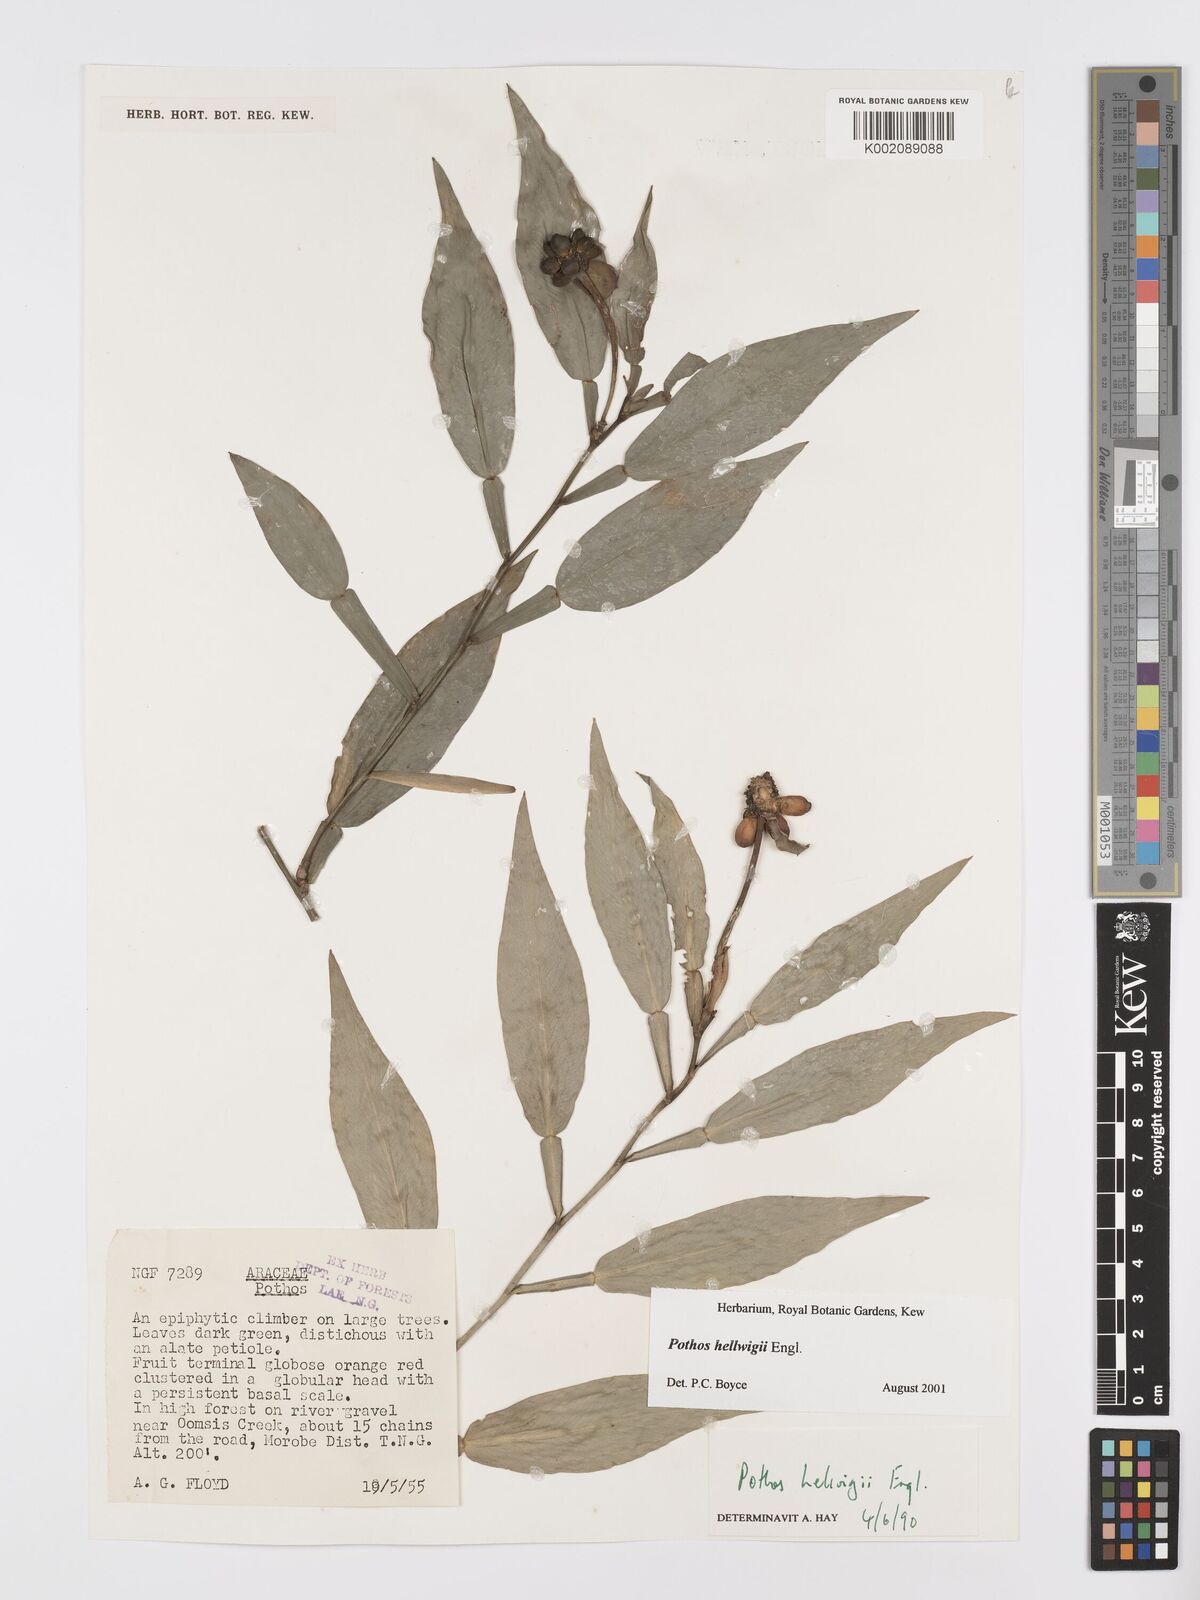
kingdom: Plantae
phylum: Tracheophyta
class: Liliopsida
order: Alismatales
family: Araceae
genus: Pothos
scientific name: Pothos hellwigii
